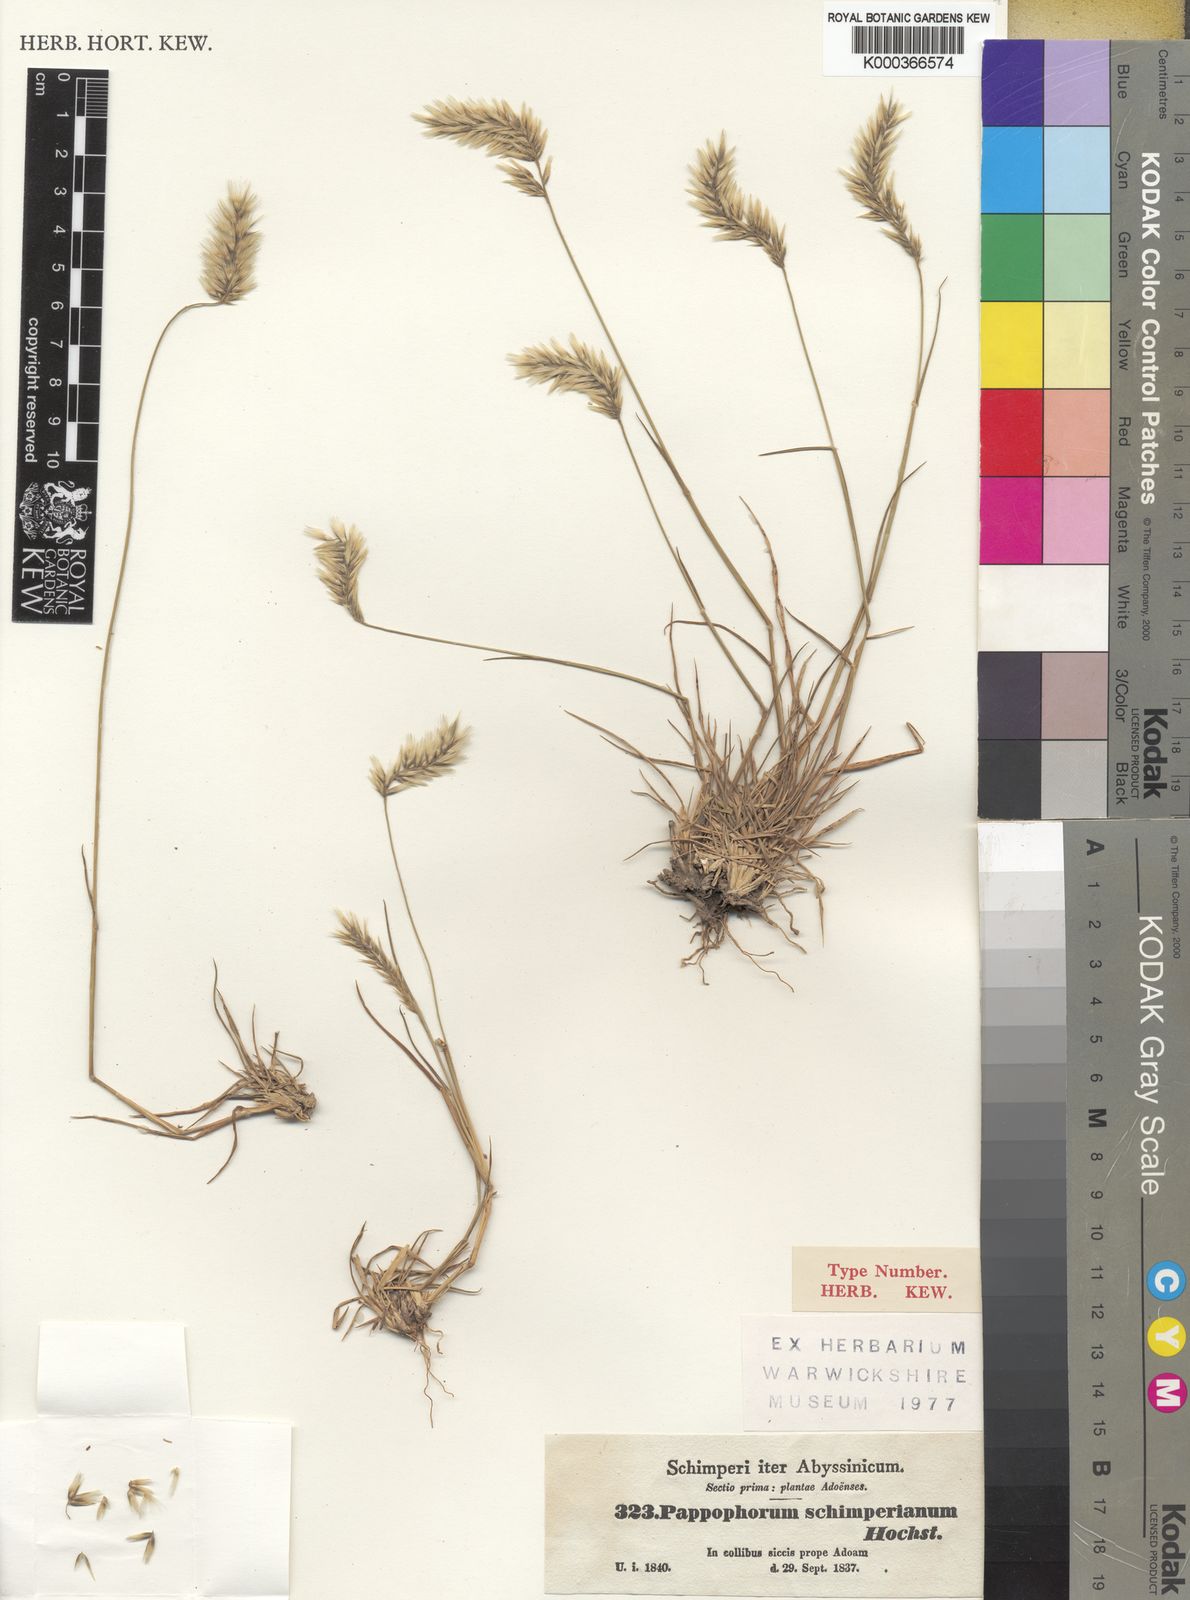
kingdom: Plantae
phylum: Tracheophyta
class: Liliopsida
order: Poales
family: Poaceae
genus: Enneapogon
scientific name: Enneapogon persicus
